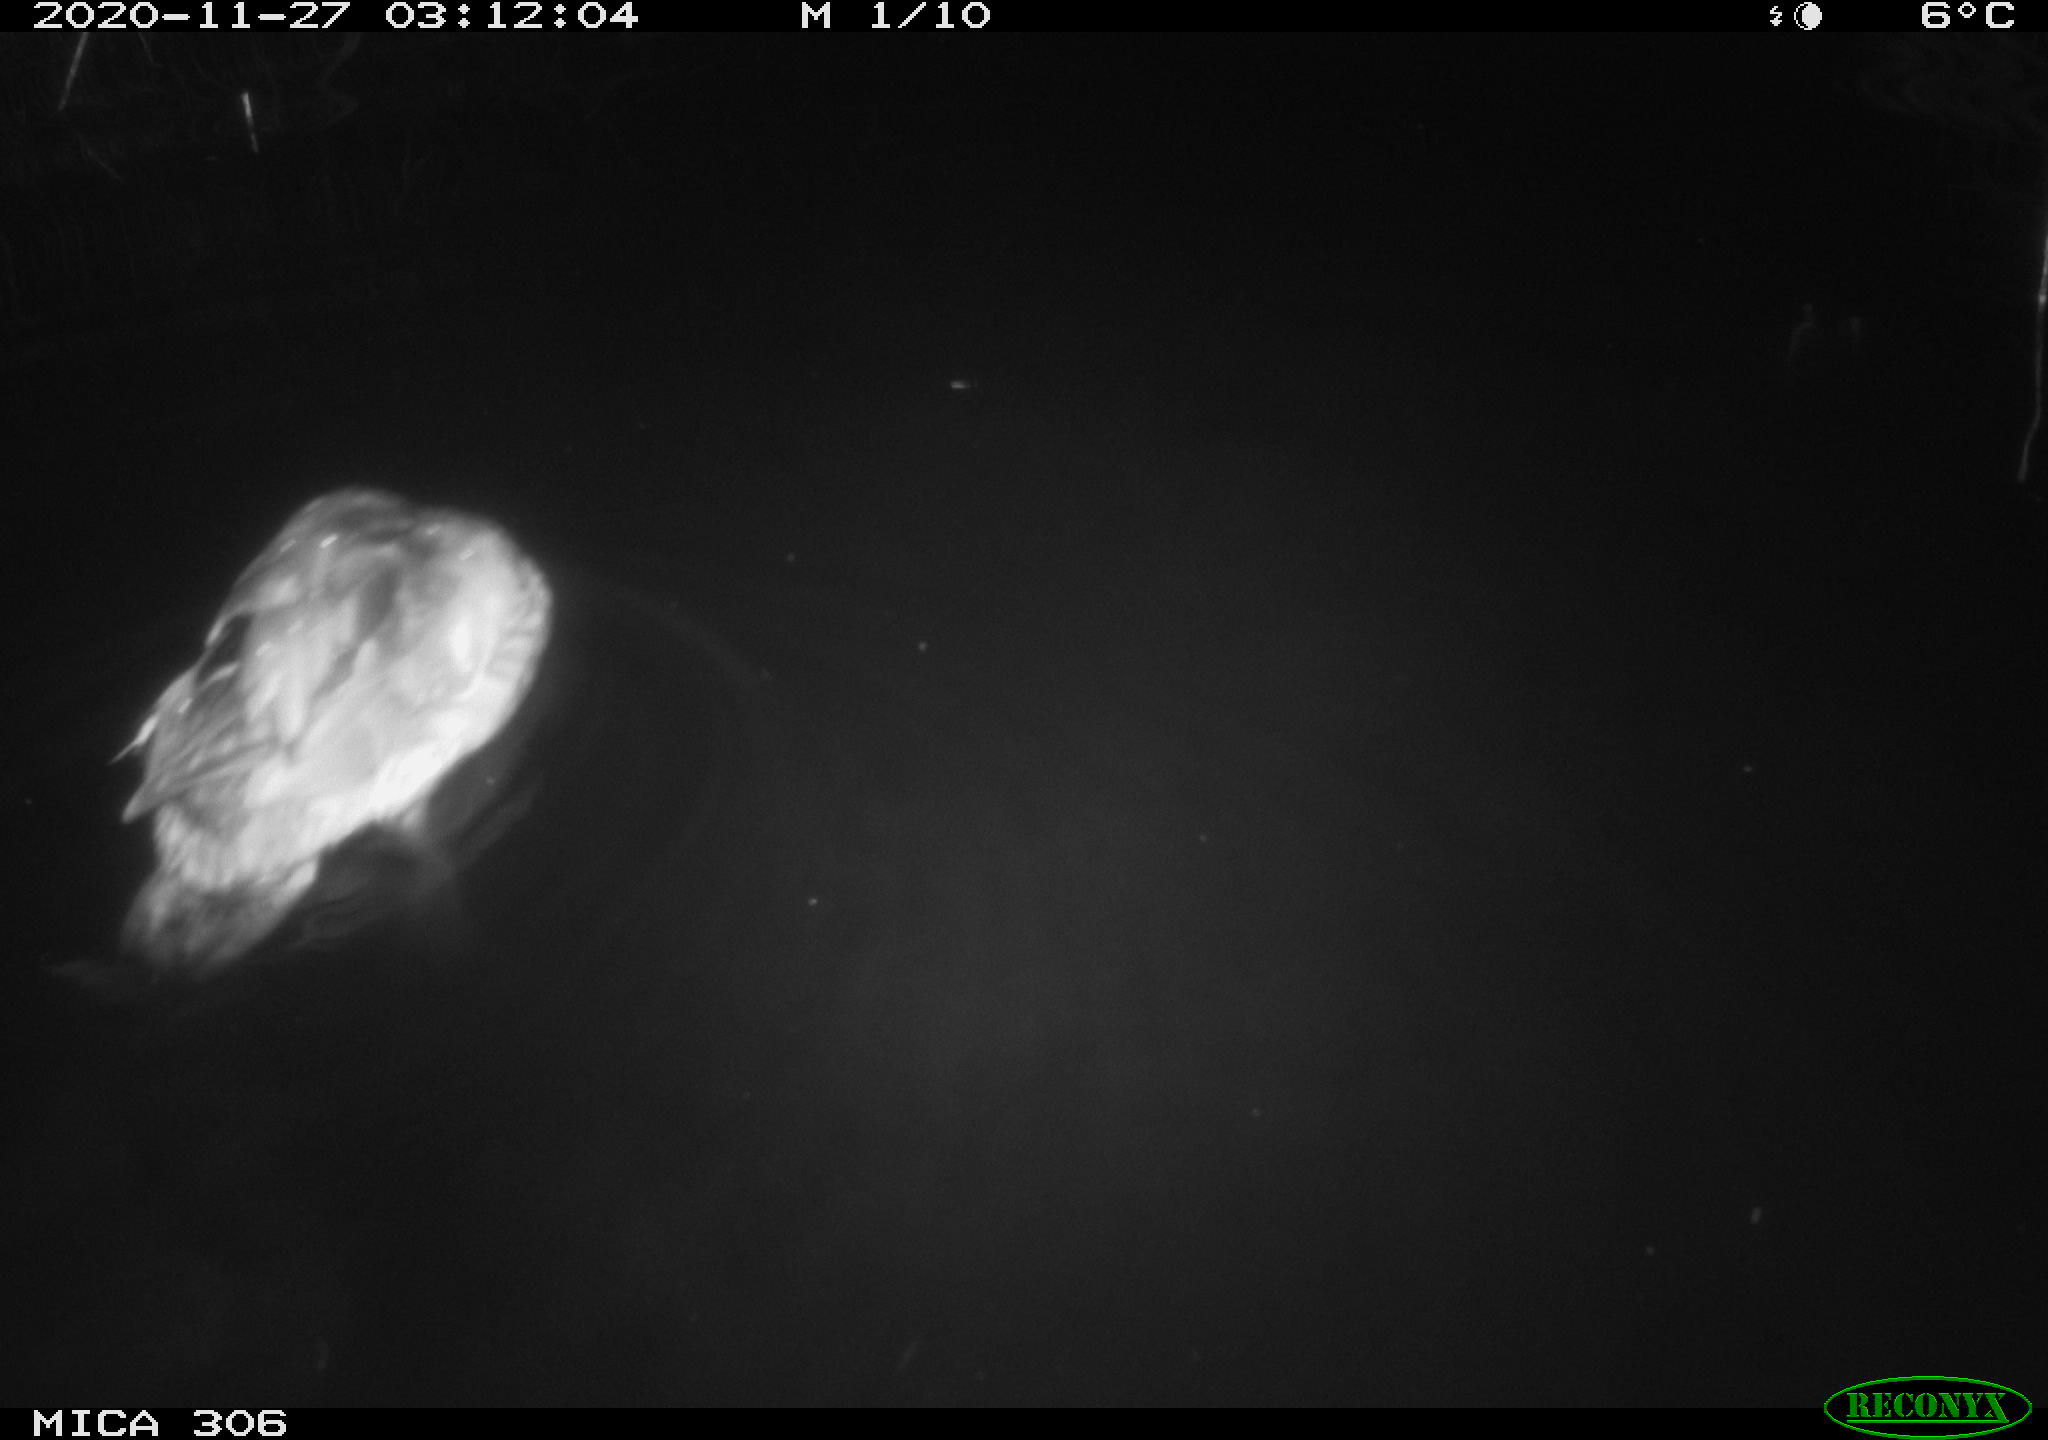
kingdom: Animalia
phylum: Chordata
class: Aves
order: Anseriformes
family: Anatidae
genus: Anas
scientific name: Anas platyrhynchos
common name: Mallard
